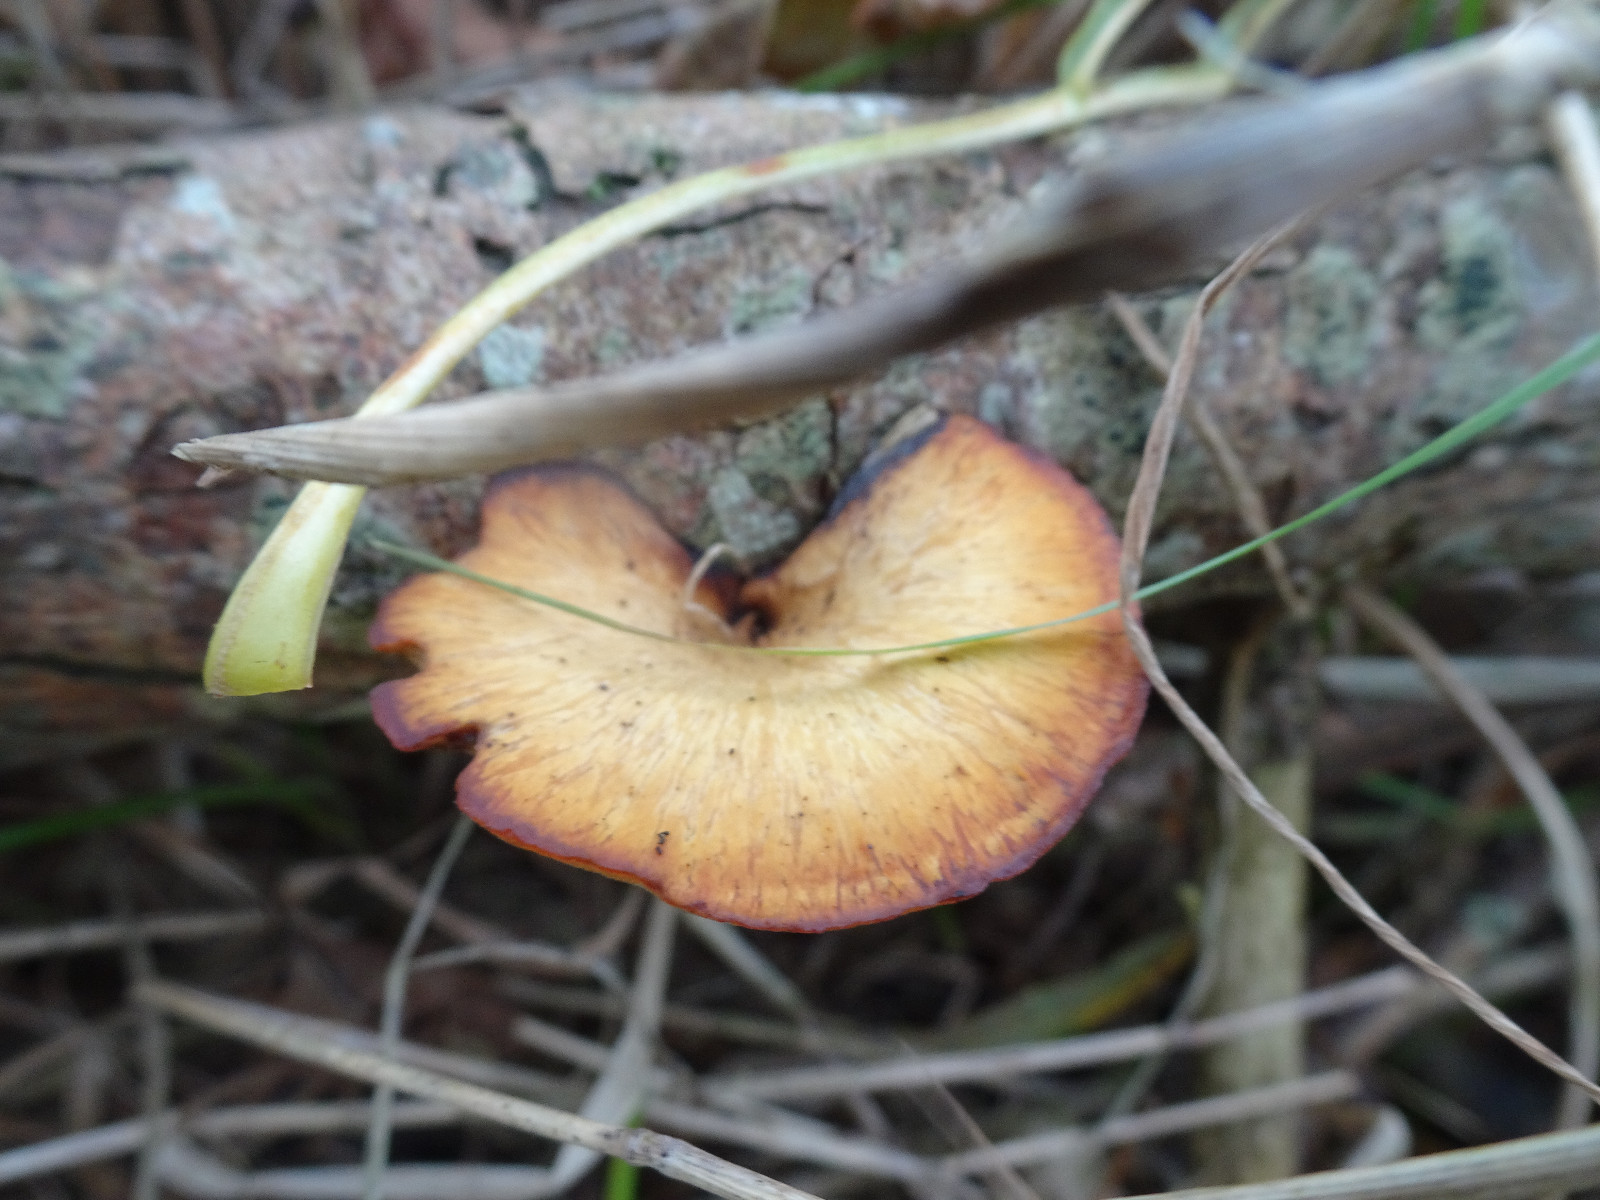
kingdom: Fungi
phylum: Basidiomycota
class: Agaricomycetes
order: Polyporales
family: Polyporaceae
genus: Cerioporus
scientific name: Cerioporus varius
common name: foranderlig stilkporesvamp
